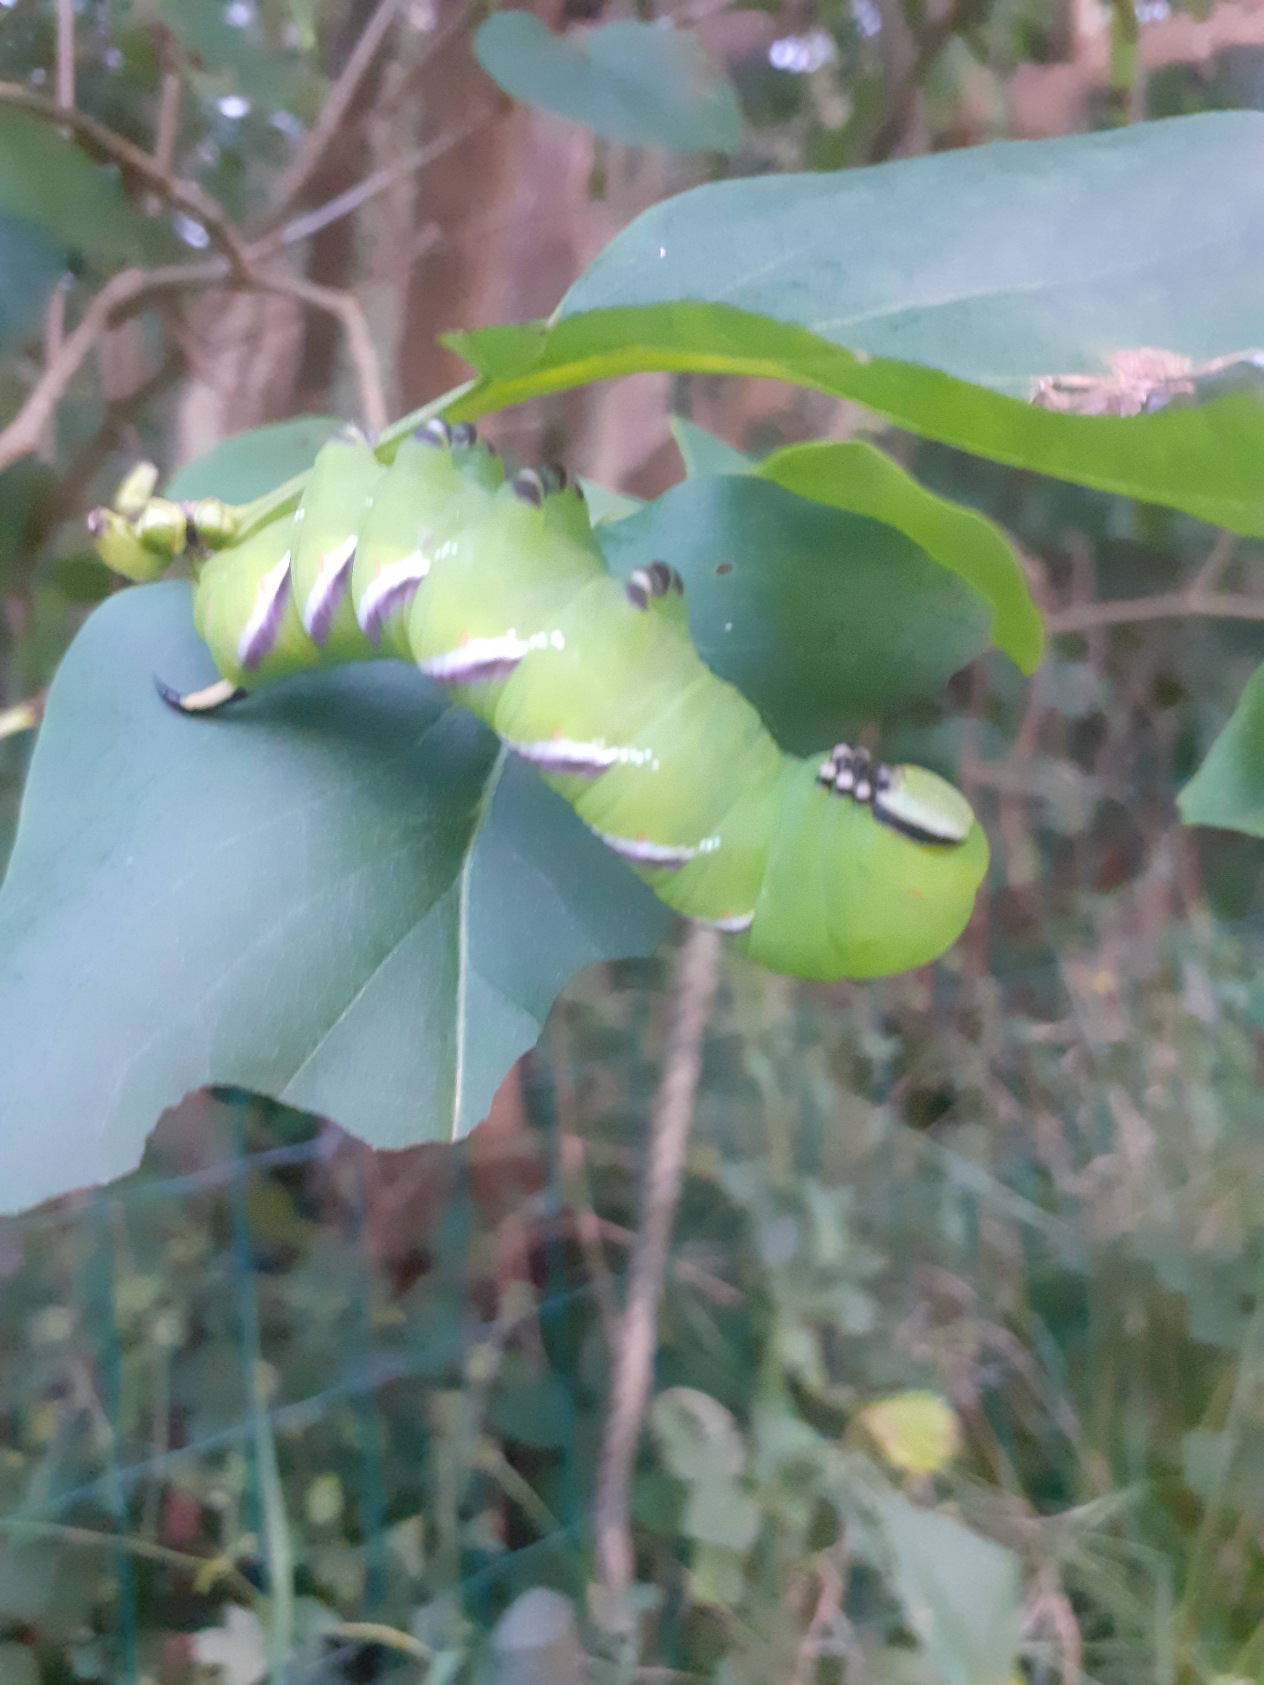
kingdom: Animalia
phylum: Arthropoda
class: Insecta
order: Lepidoptera
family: Sphingidae
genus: Sphinx
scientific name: Sphinx ligustri
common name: Ligustersværmer
